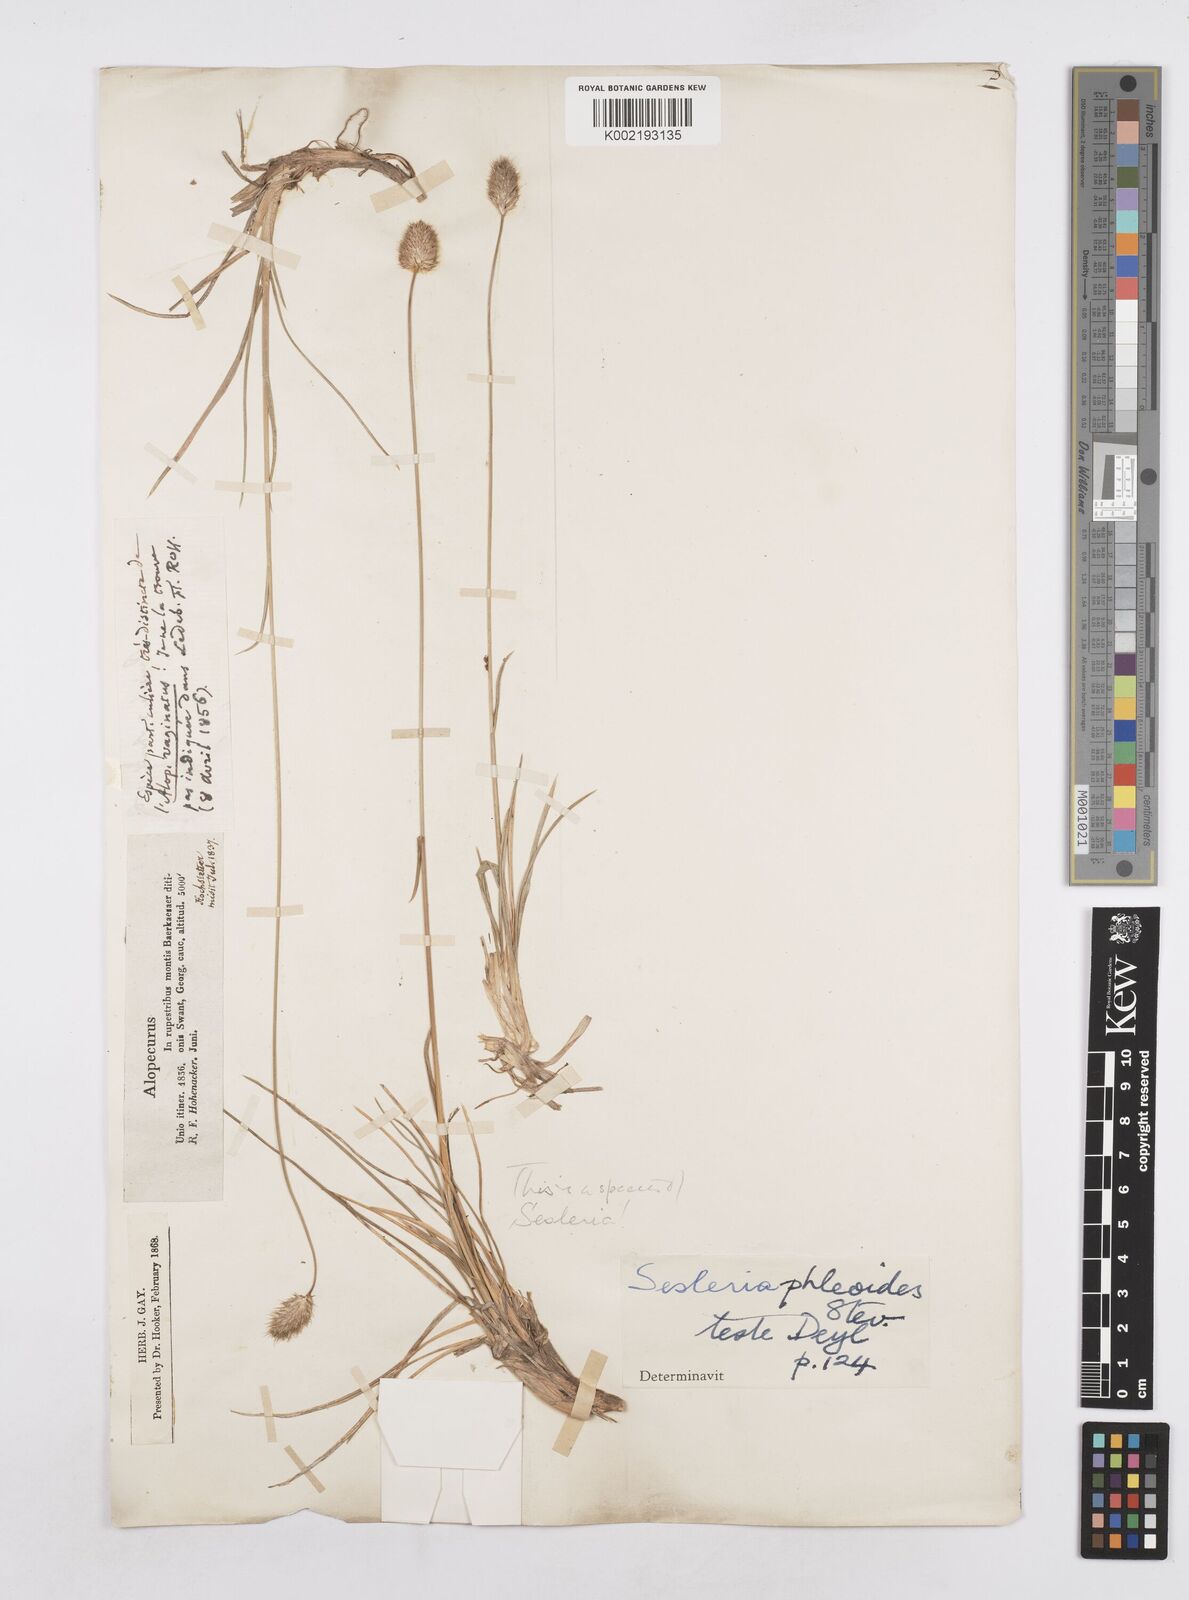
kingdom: Plantae
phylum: Tracheophyta
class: Liliopsida
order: Poales
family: Poaceae
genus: Sesleria
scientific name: Sesleria nitida
